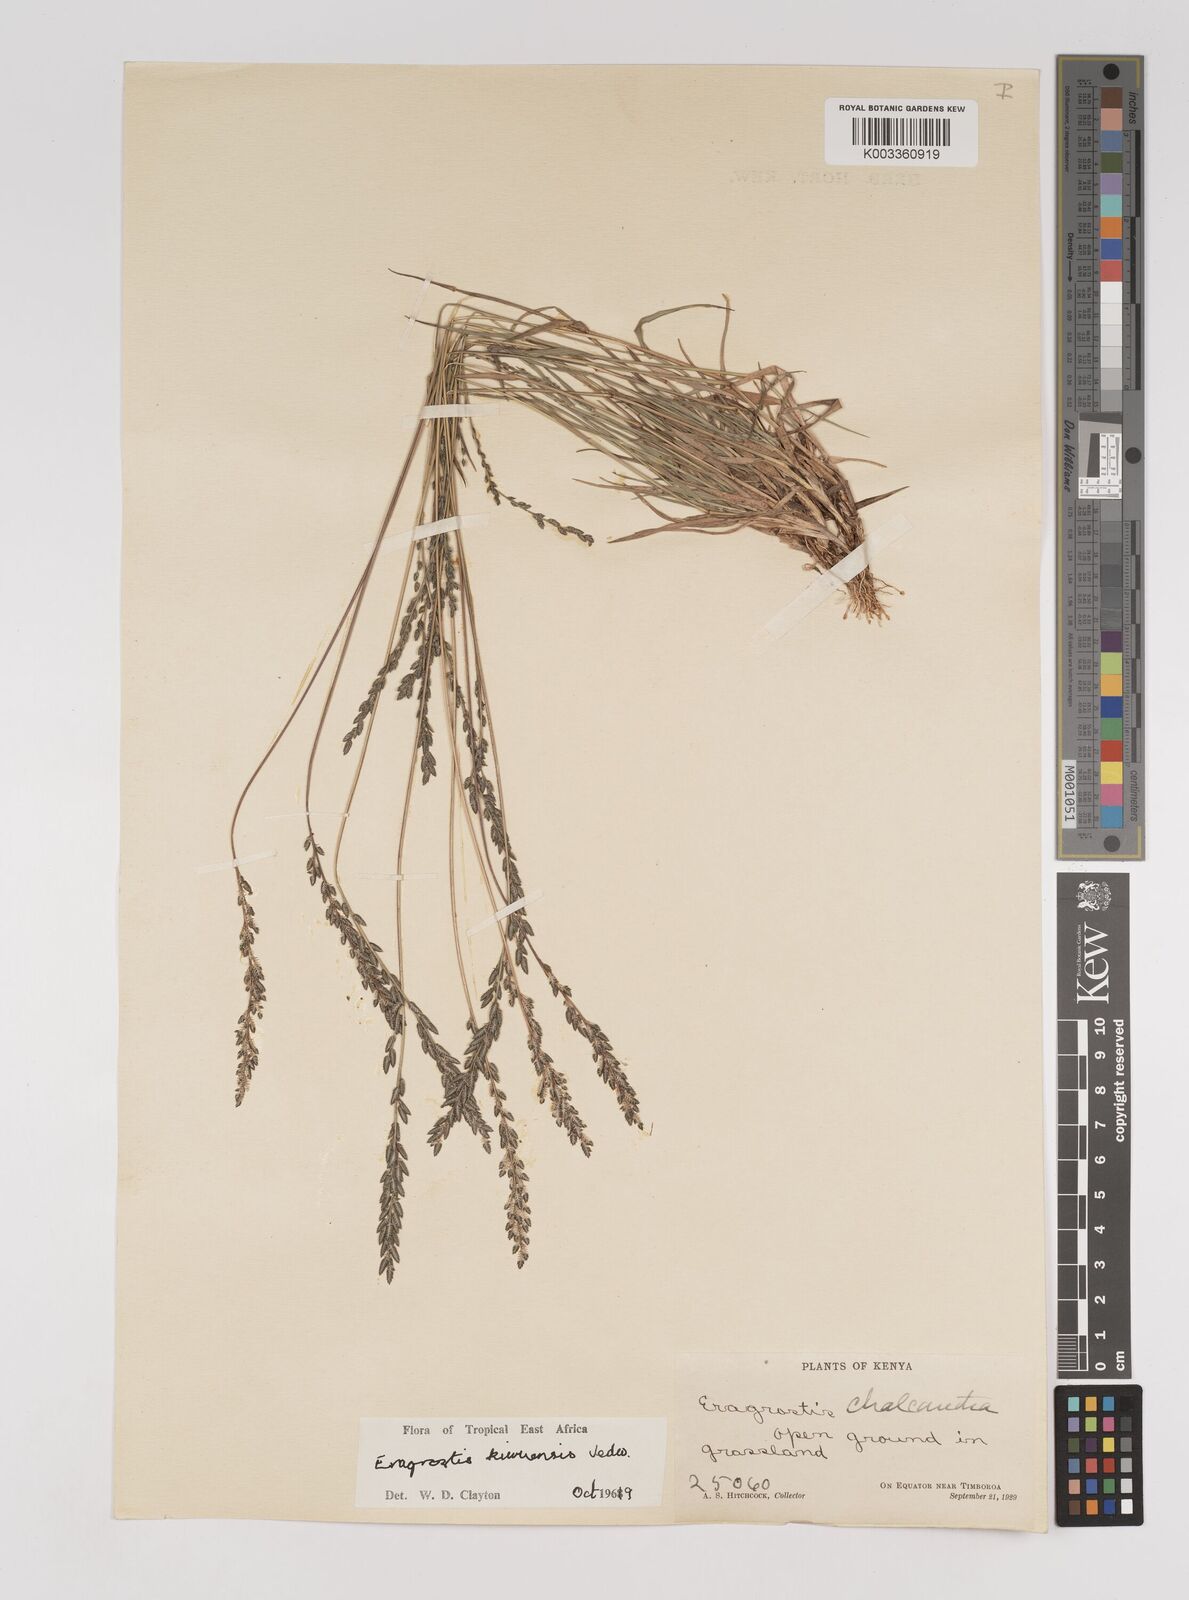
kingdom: Plantae
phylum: Tracheophyta
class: Liliopsida
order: Poales
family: Poaceae
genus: Eragrostis
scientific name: Eragrostis schweinfurthii
